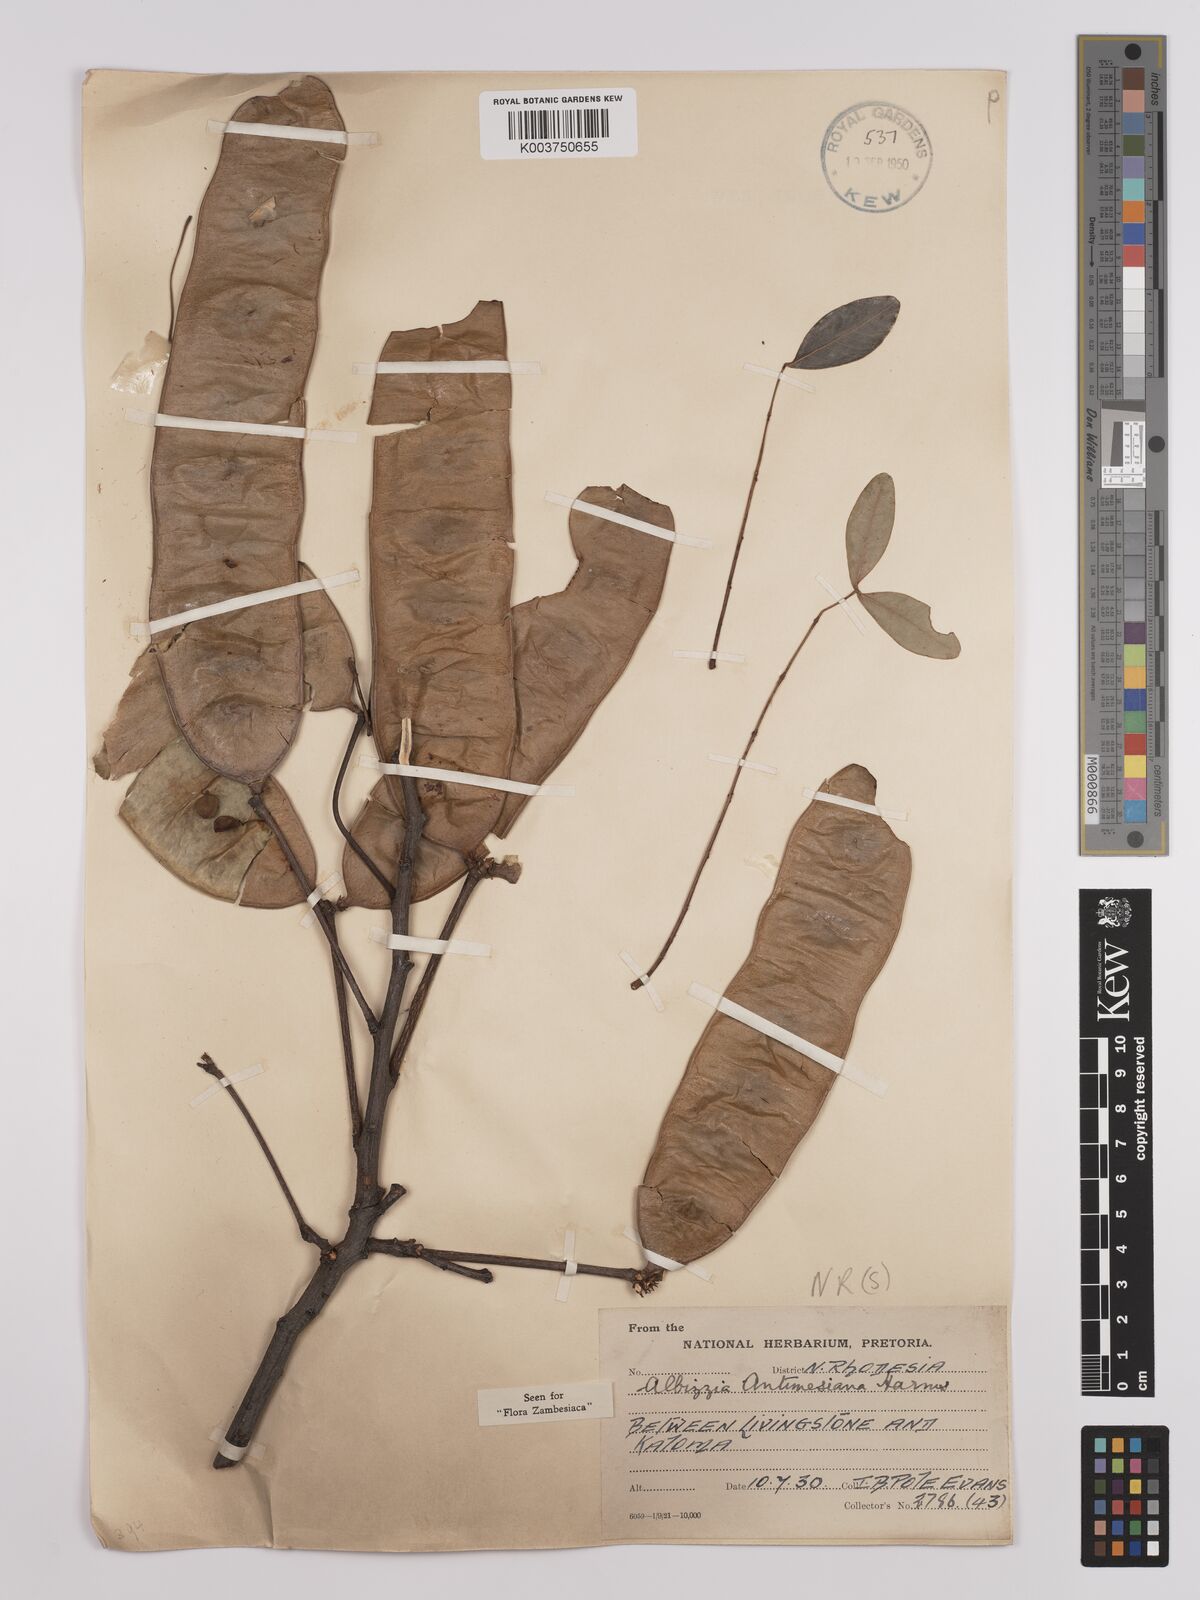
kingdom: Plantae
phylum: Tracheophyta
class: Magnoliopsida
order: Fabales
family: Fabaceae
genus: Albizia
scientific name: Albizia antunesiana
